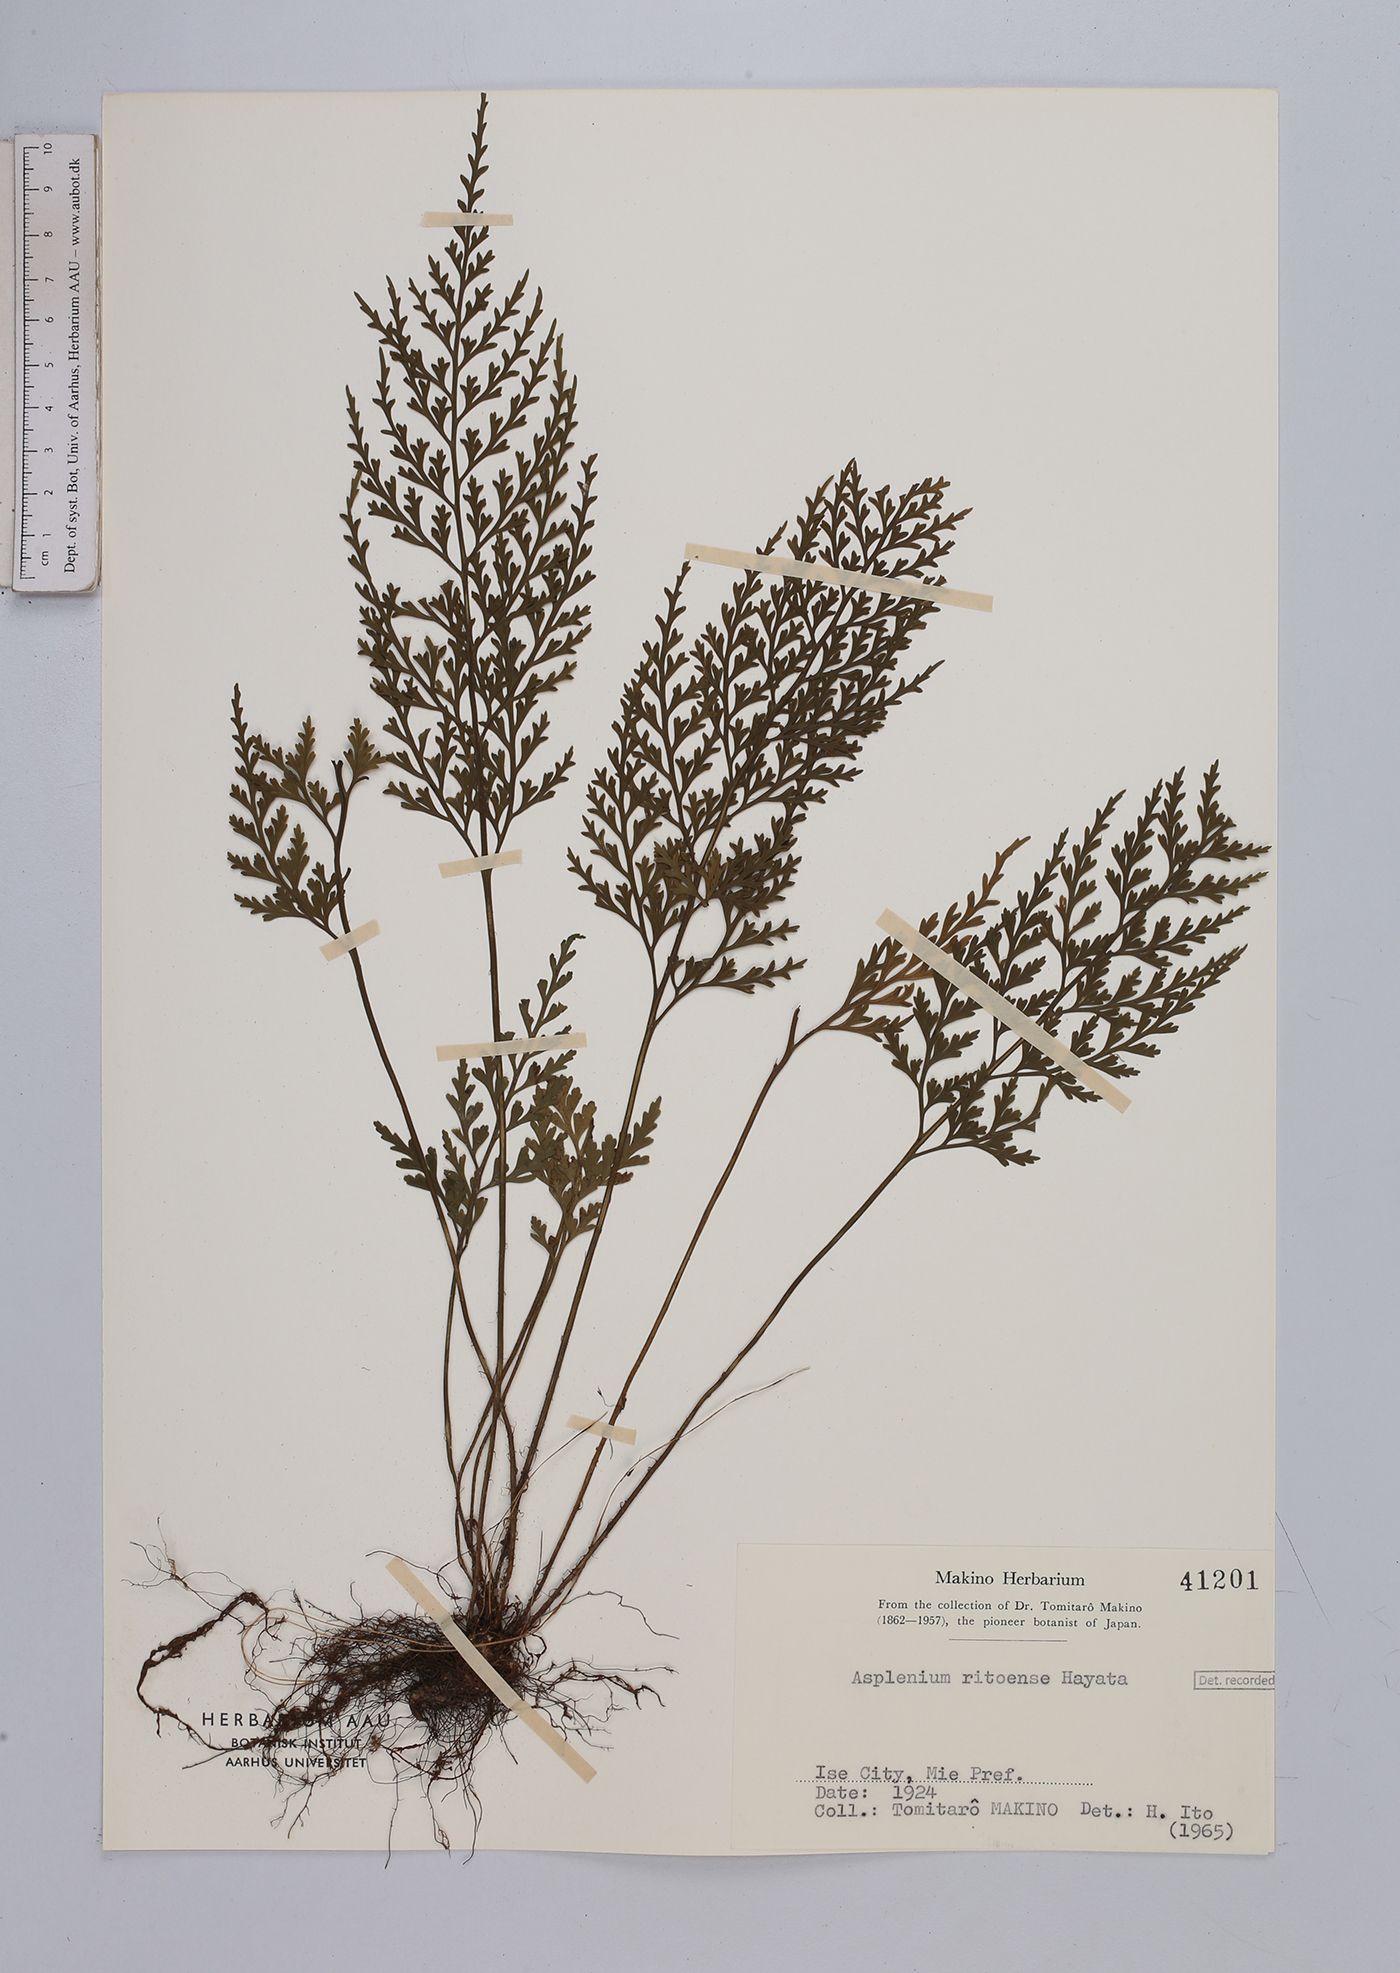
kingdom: Plantae
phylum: Tracheophyta
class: Polypodiopsida
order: Polypodiales
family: Aspleniaceae
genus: Asplenium
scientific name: Asplenium ritoense
